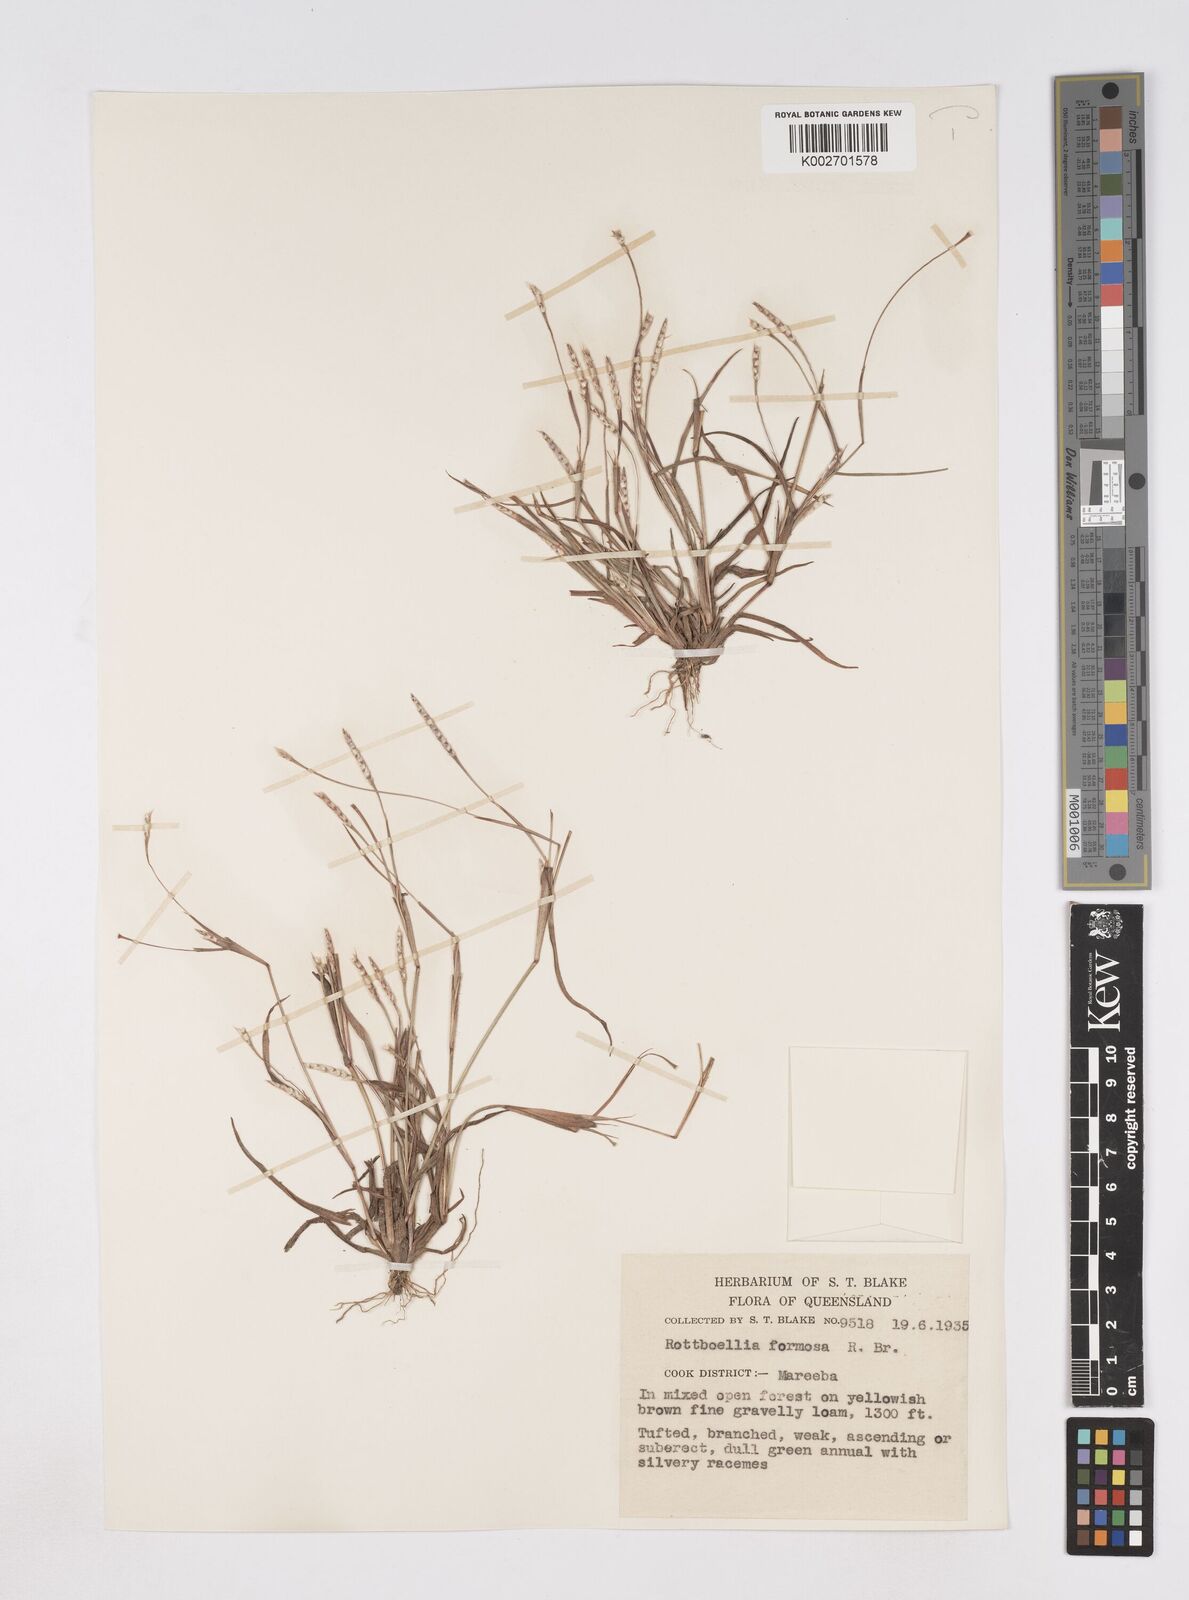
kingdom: Plantae
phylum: Tracheophyta
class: Liliopsida
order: Poales
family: Poaceae
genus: Heteropholis
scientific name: Heteropholis
